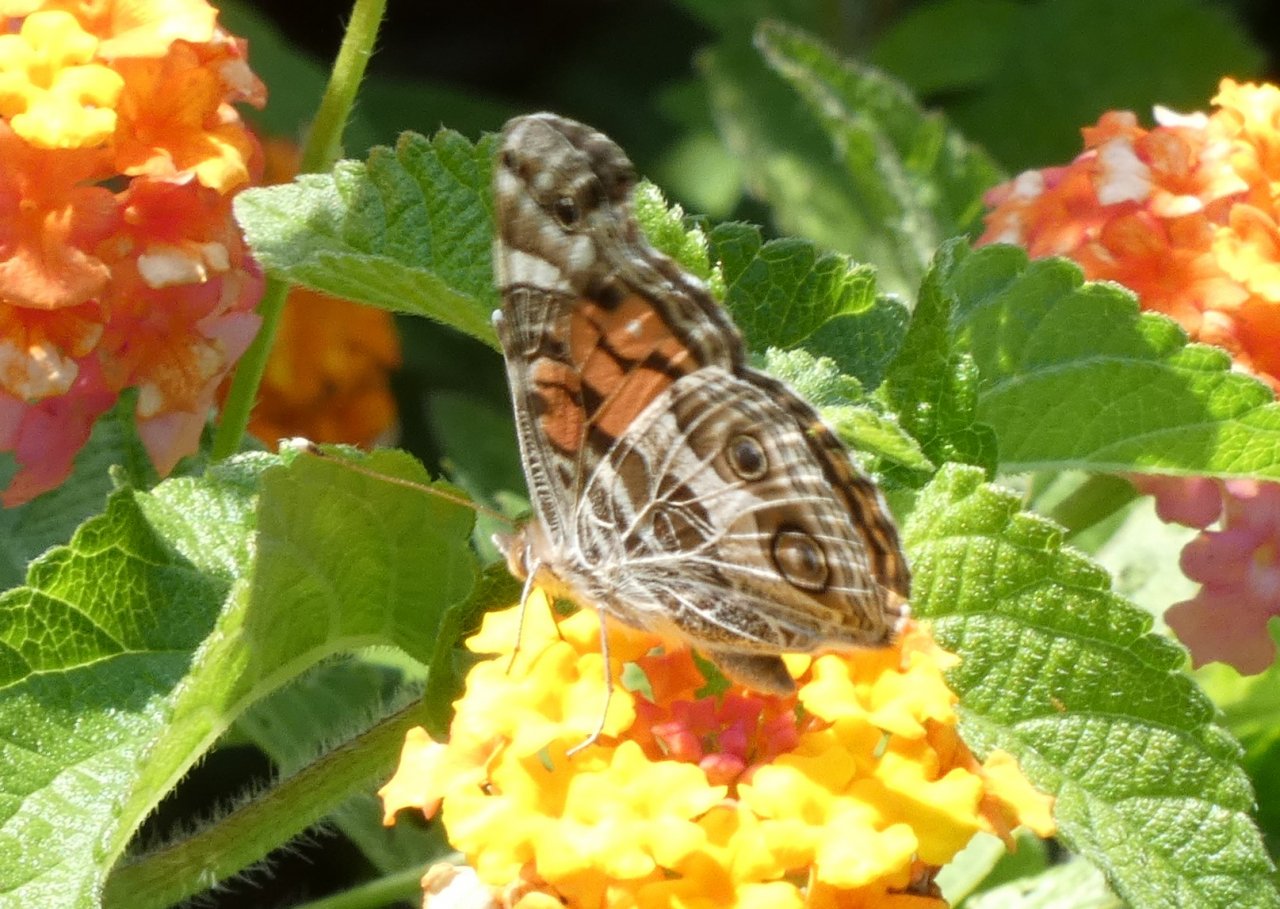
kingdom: Animalia
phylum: Arthropoda
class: Insecta
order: Lepidoptera
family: Nymphalidae
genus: Vanessa
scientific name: Vanessa virginiensis
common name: American Lady
